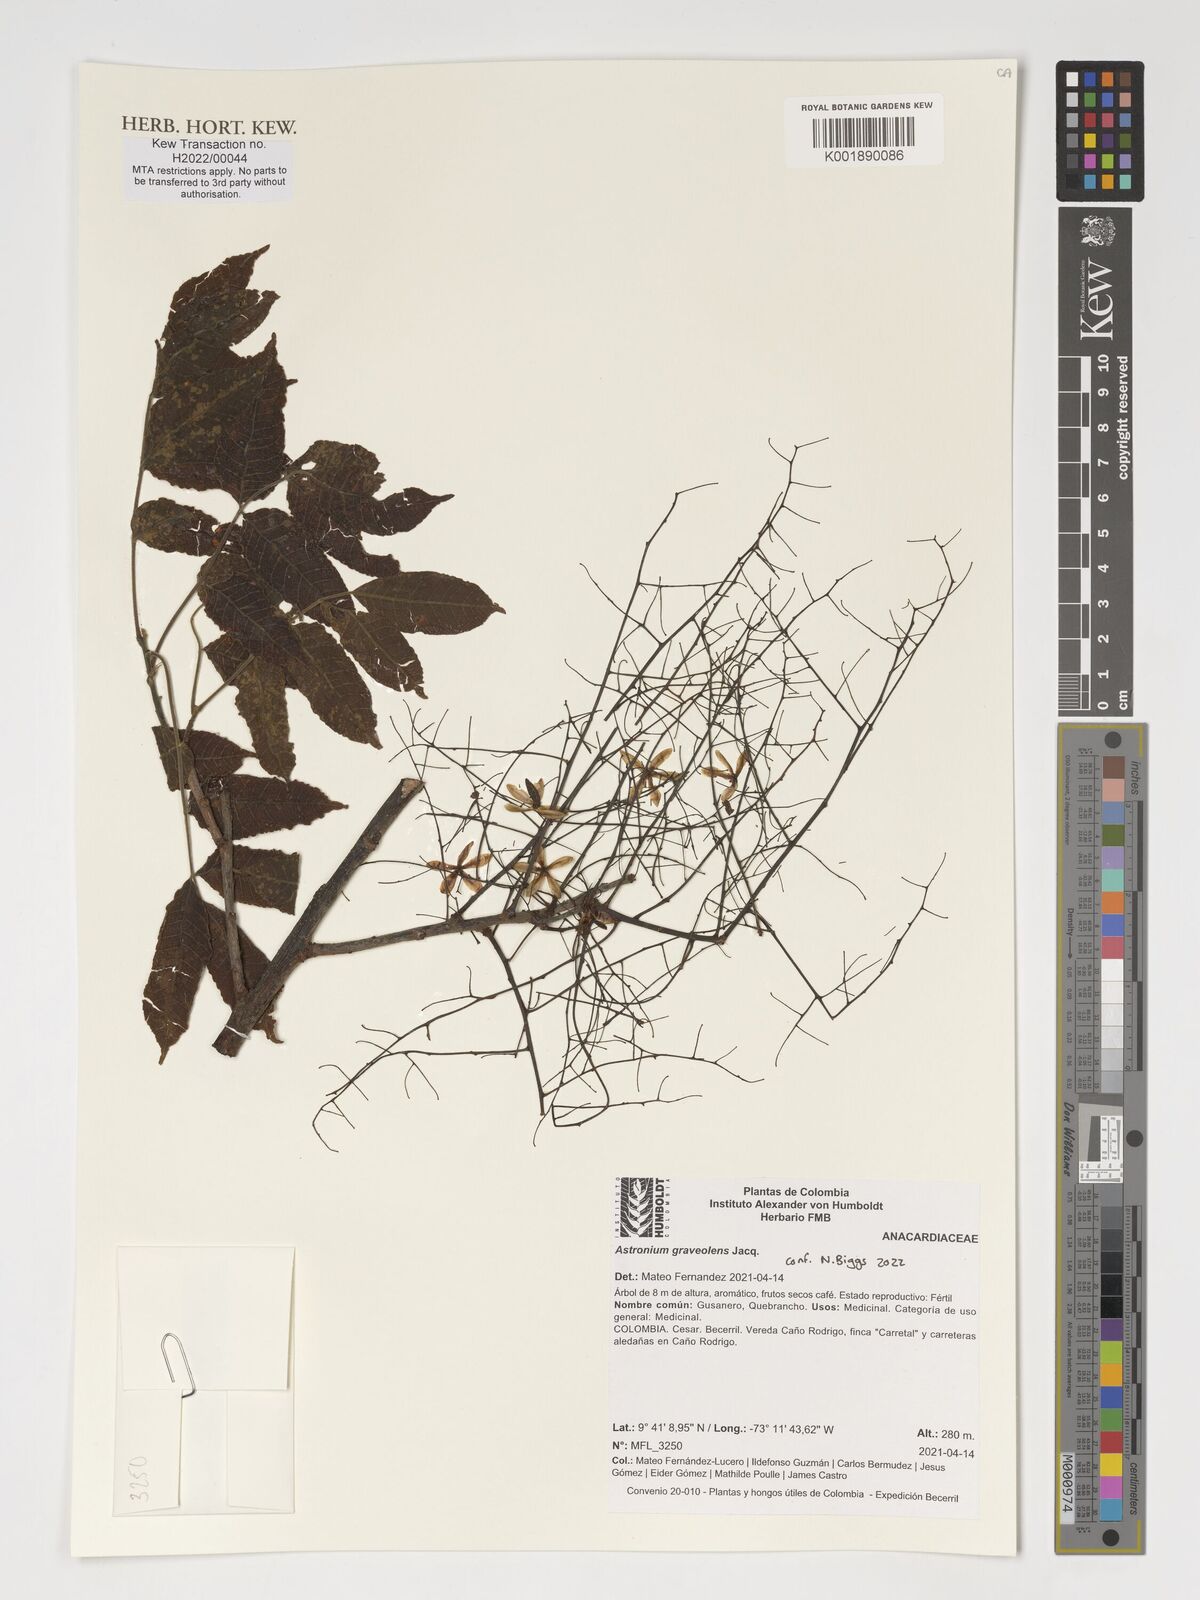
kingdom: Plantae
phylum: Tracheophyta
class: Magnoliopsida
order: Sapindales
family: Anacardiaceae
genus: Astronium
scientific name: Astronium graveolens
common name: Glassywood
